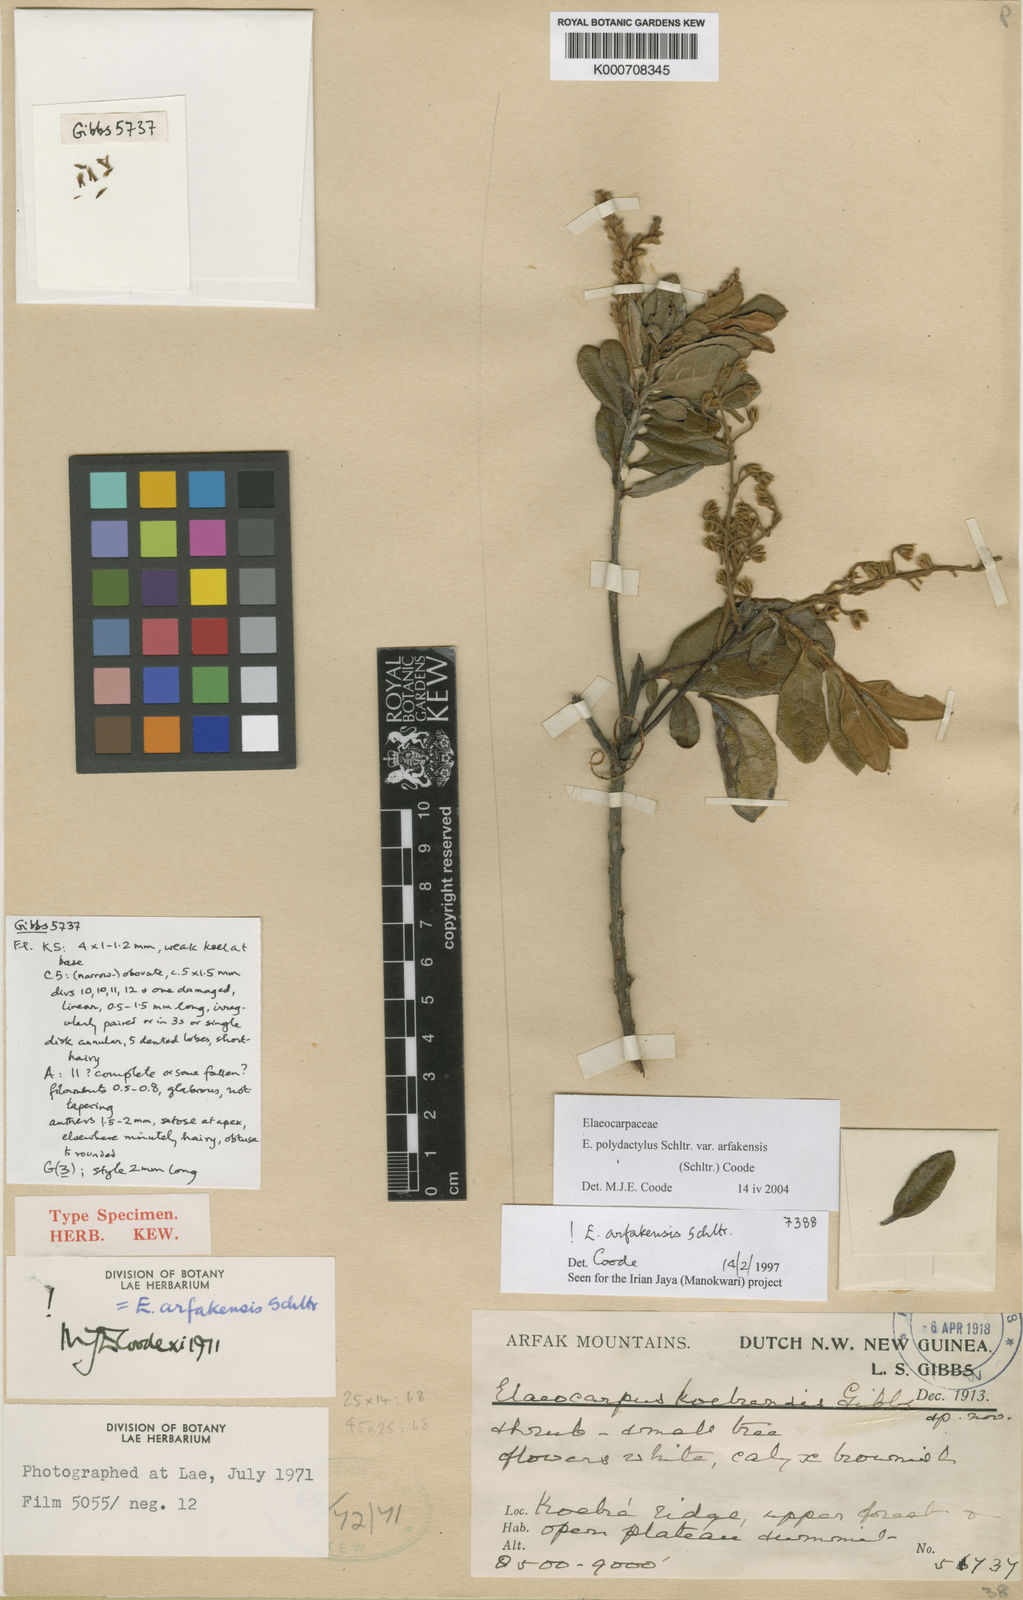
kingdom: Plantae
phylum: Tracheophyta
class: Magnoliopsida
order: Oxalidales
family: Elaeocarpaceae
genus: Elaeocarpus
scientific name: Elaeocarpus arfakensis
